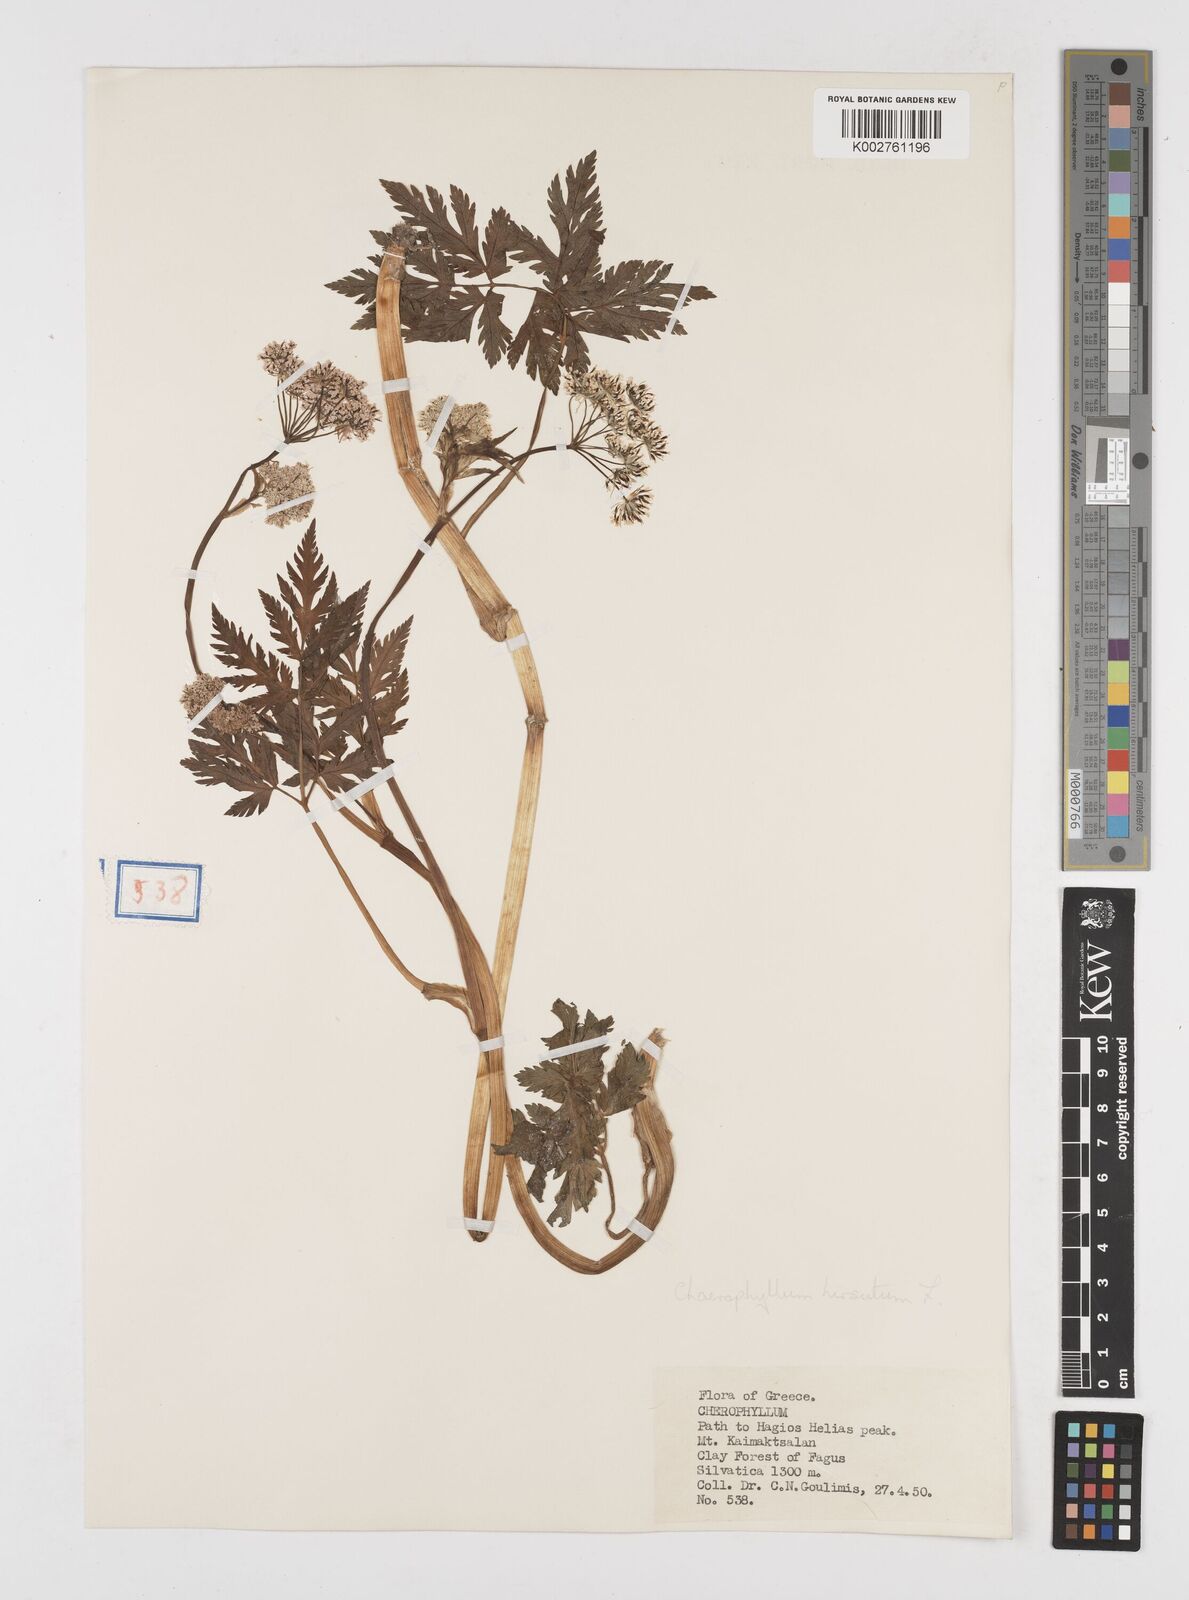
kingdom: Plantae
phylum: Tracheophyta
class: Magnoliopsida
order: Apiales
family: Apiaceae
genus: Chaerophyllum
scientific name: Chaerophyllum hirsutum
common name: Hairy chervil
